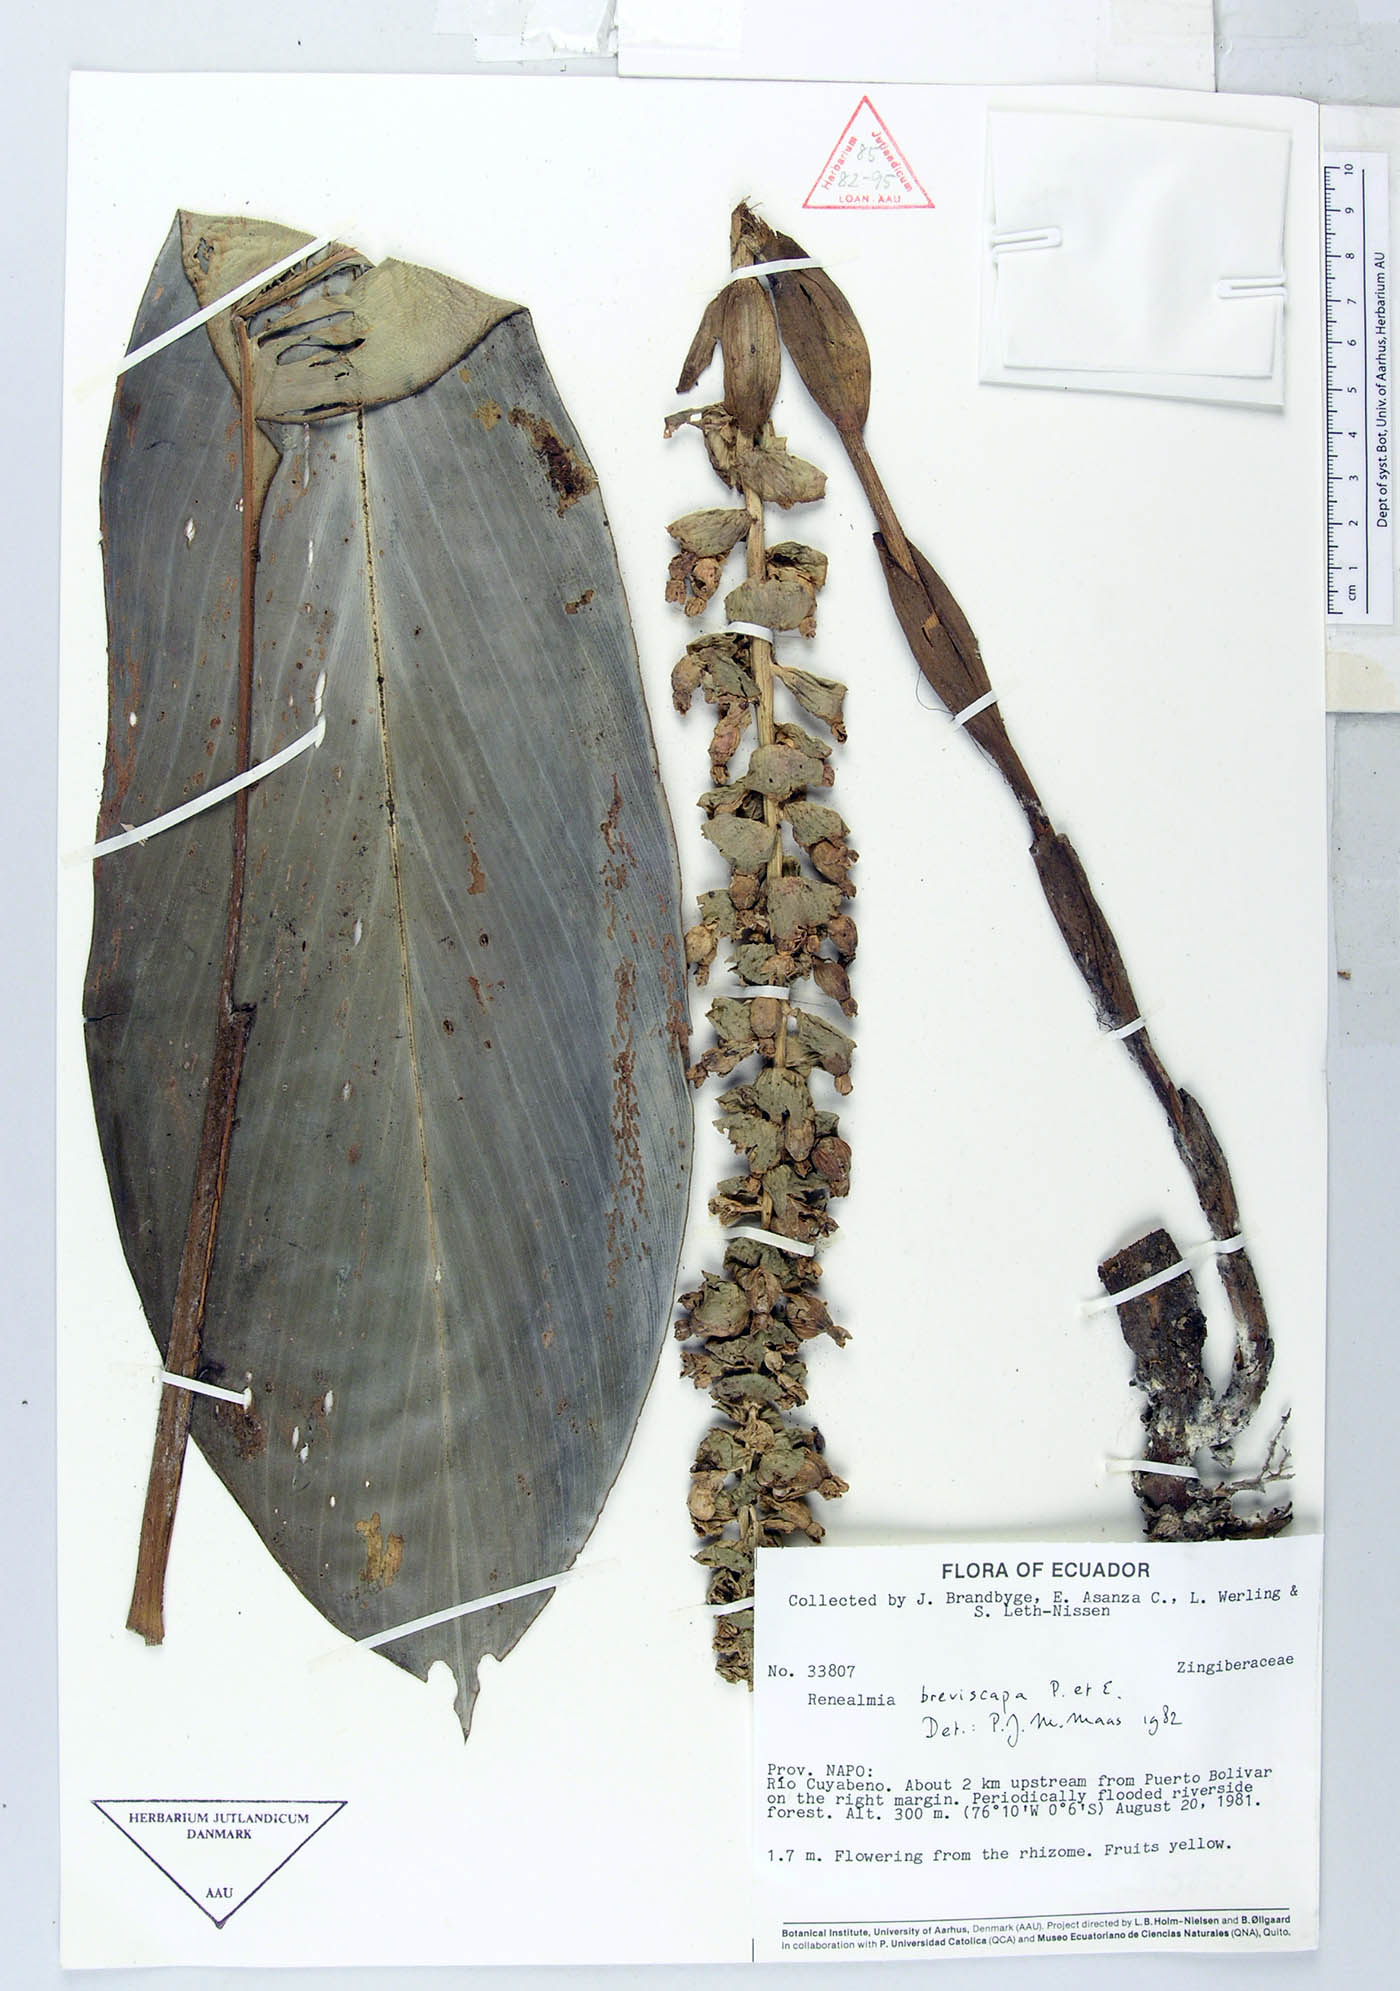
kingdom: Plantae
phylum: Tracheophyta
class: Liliopsida
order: Zingiberales
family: Zingiberaceae
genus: Renealmia
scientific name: Renealmia breviscapa
